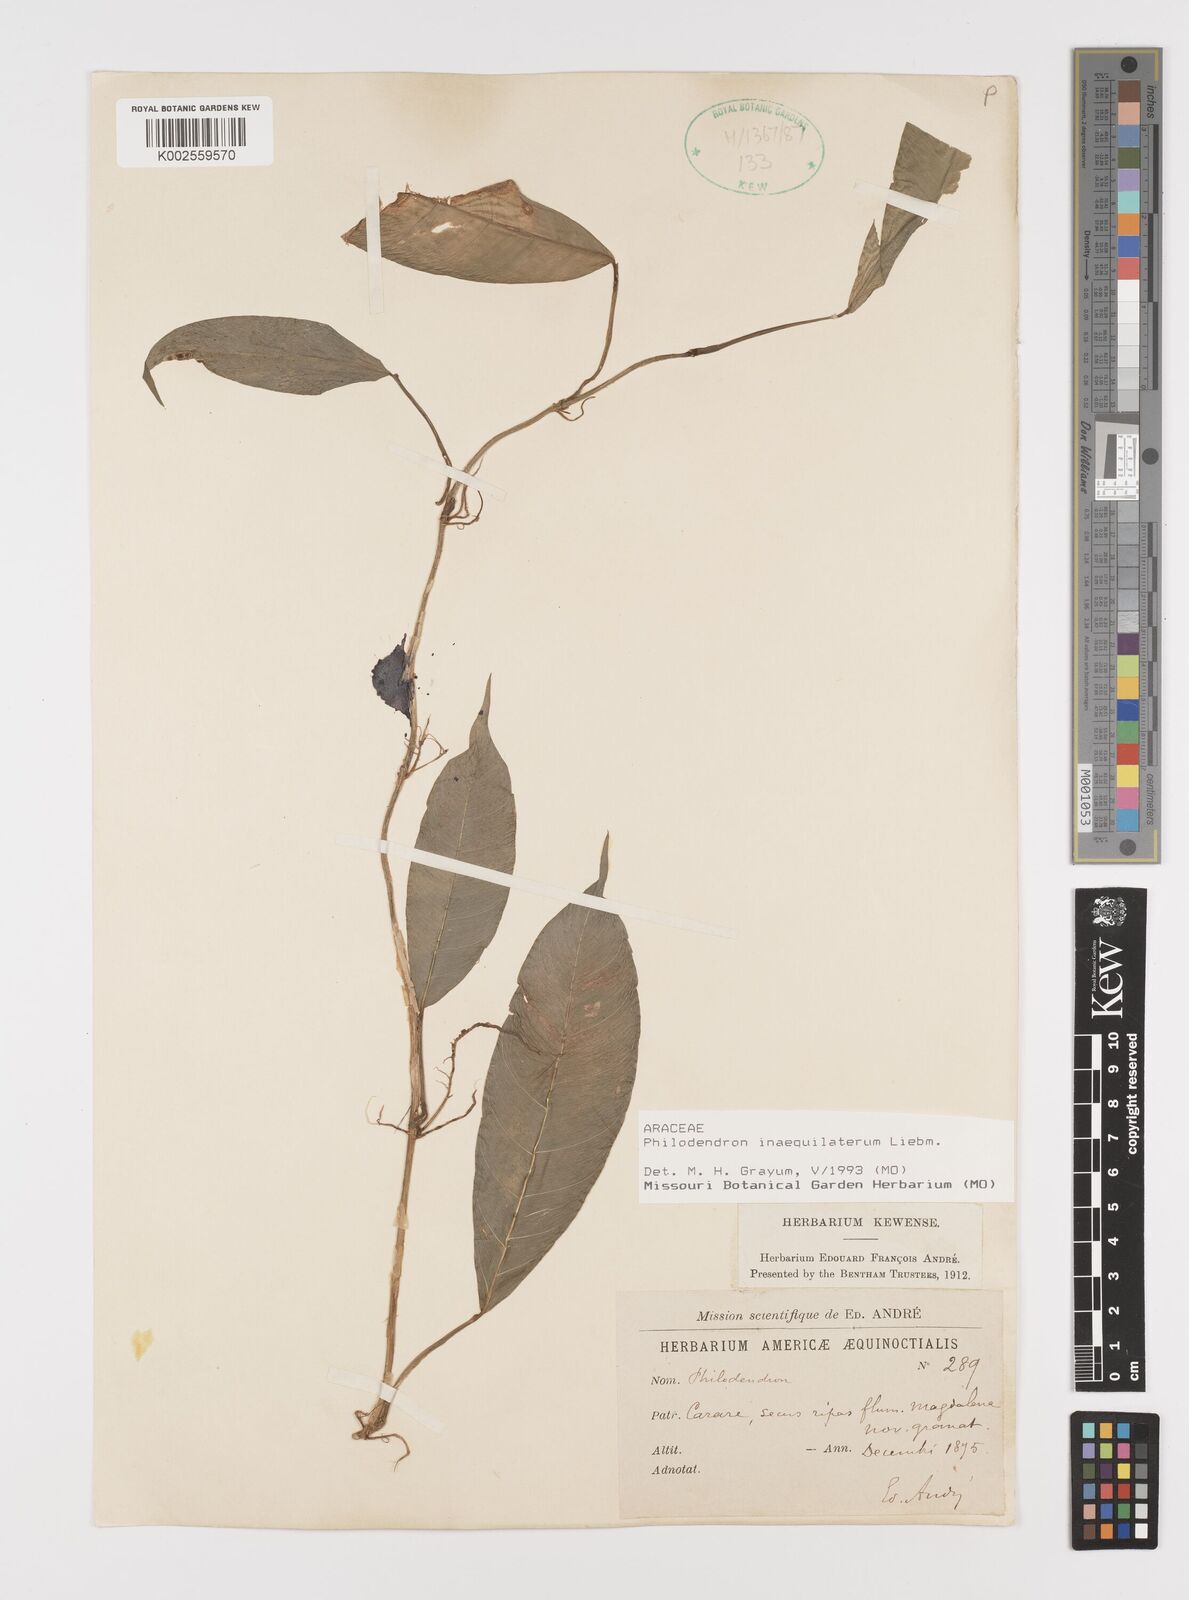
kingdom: Plantae
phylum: Tracheophyta
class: Liliopsida
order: Alismatales
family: Araceae
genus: Philodendron
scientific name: Philodendron inaequilaterum
